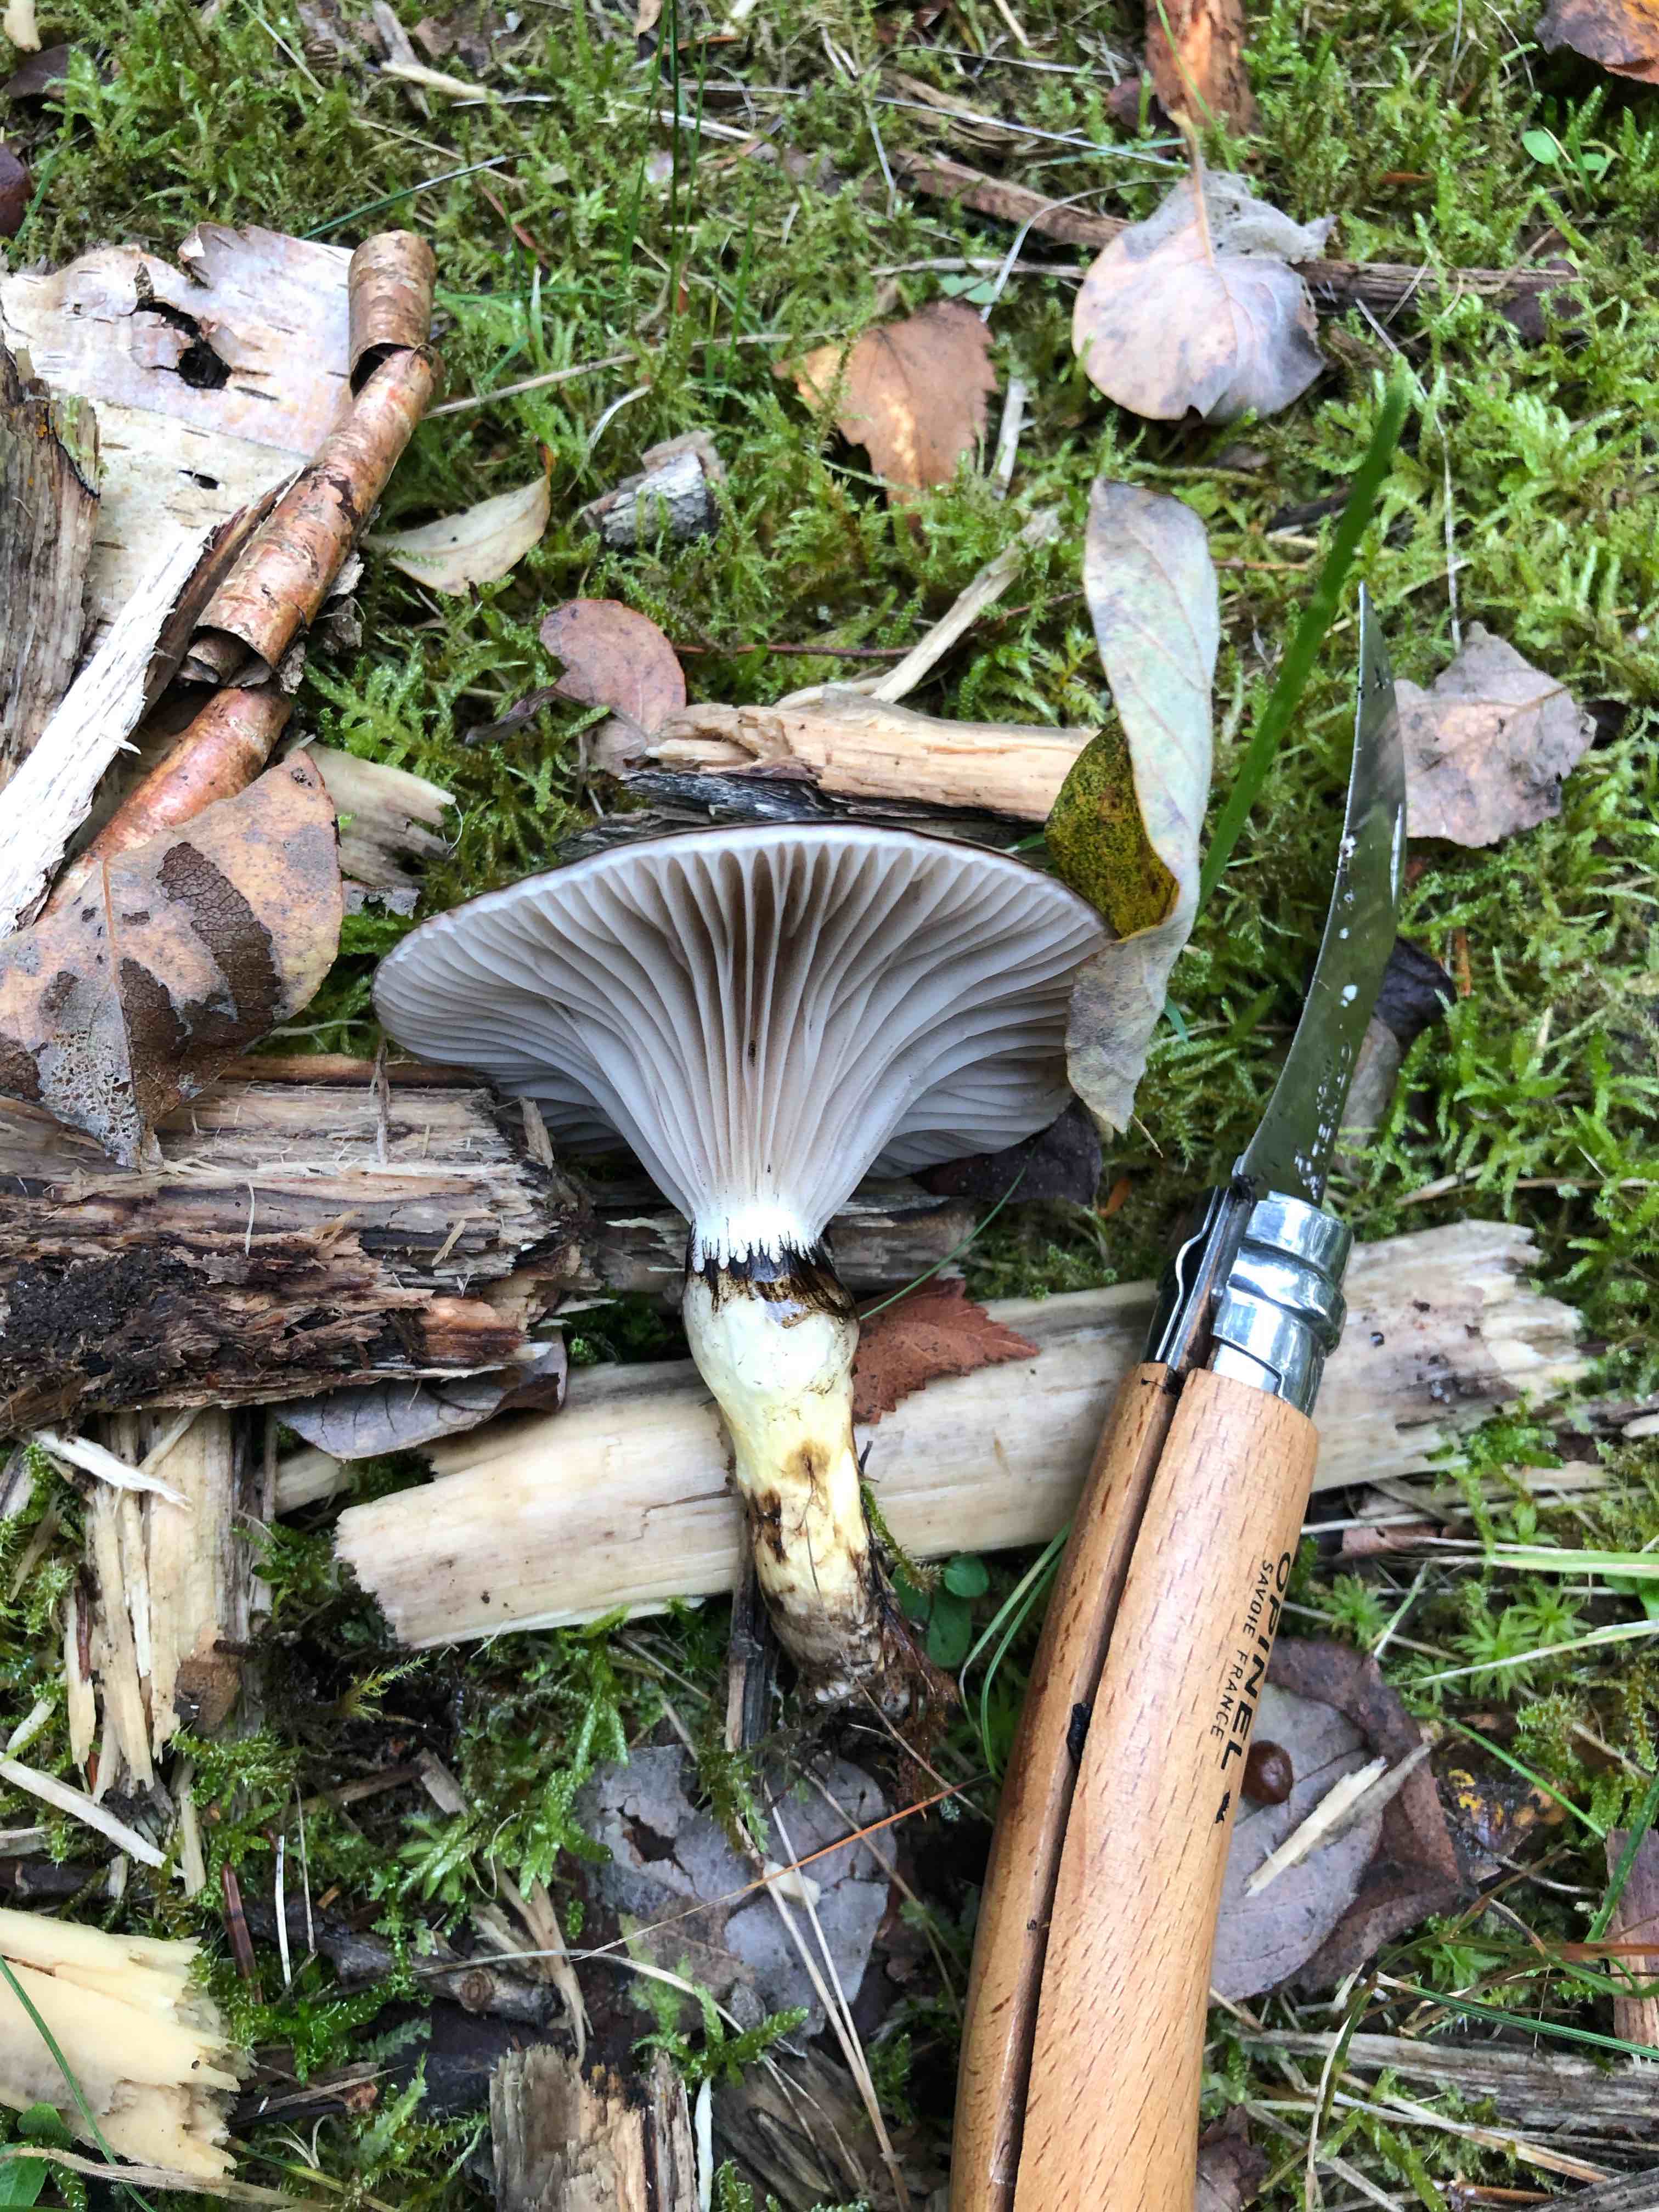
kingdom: Fungi
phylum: Basidiomycota
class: Agaricomycetes
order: Boletales
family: Gomphidiaceae
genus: Gomphidius
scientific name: Gomphidius glutinosus
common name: grå slimslør
